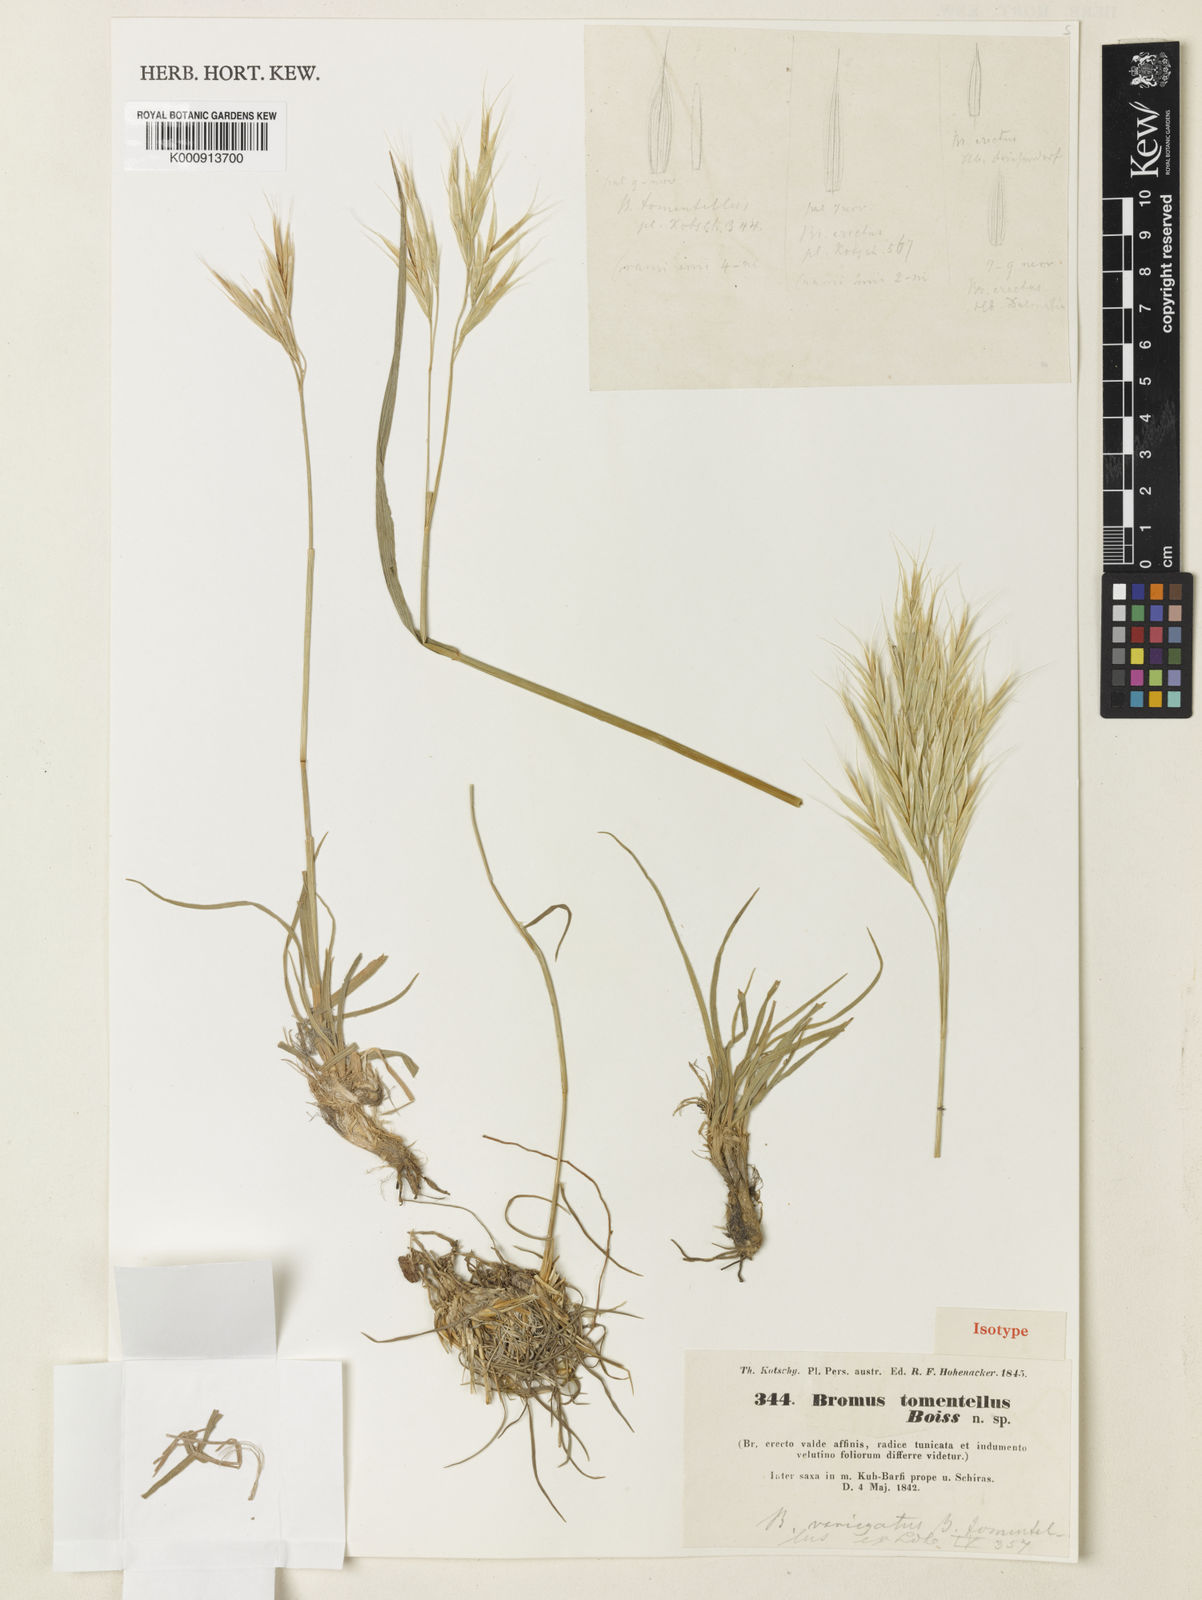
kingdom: Plantae
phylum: Tracheophyta
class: Liliopsida
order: Poales
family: Poaceae
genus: Bromus
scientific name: Bromus tomentellus
